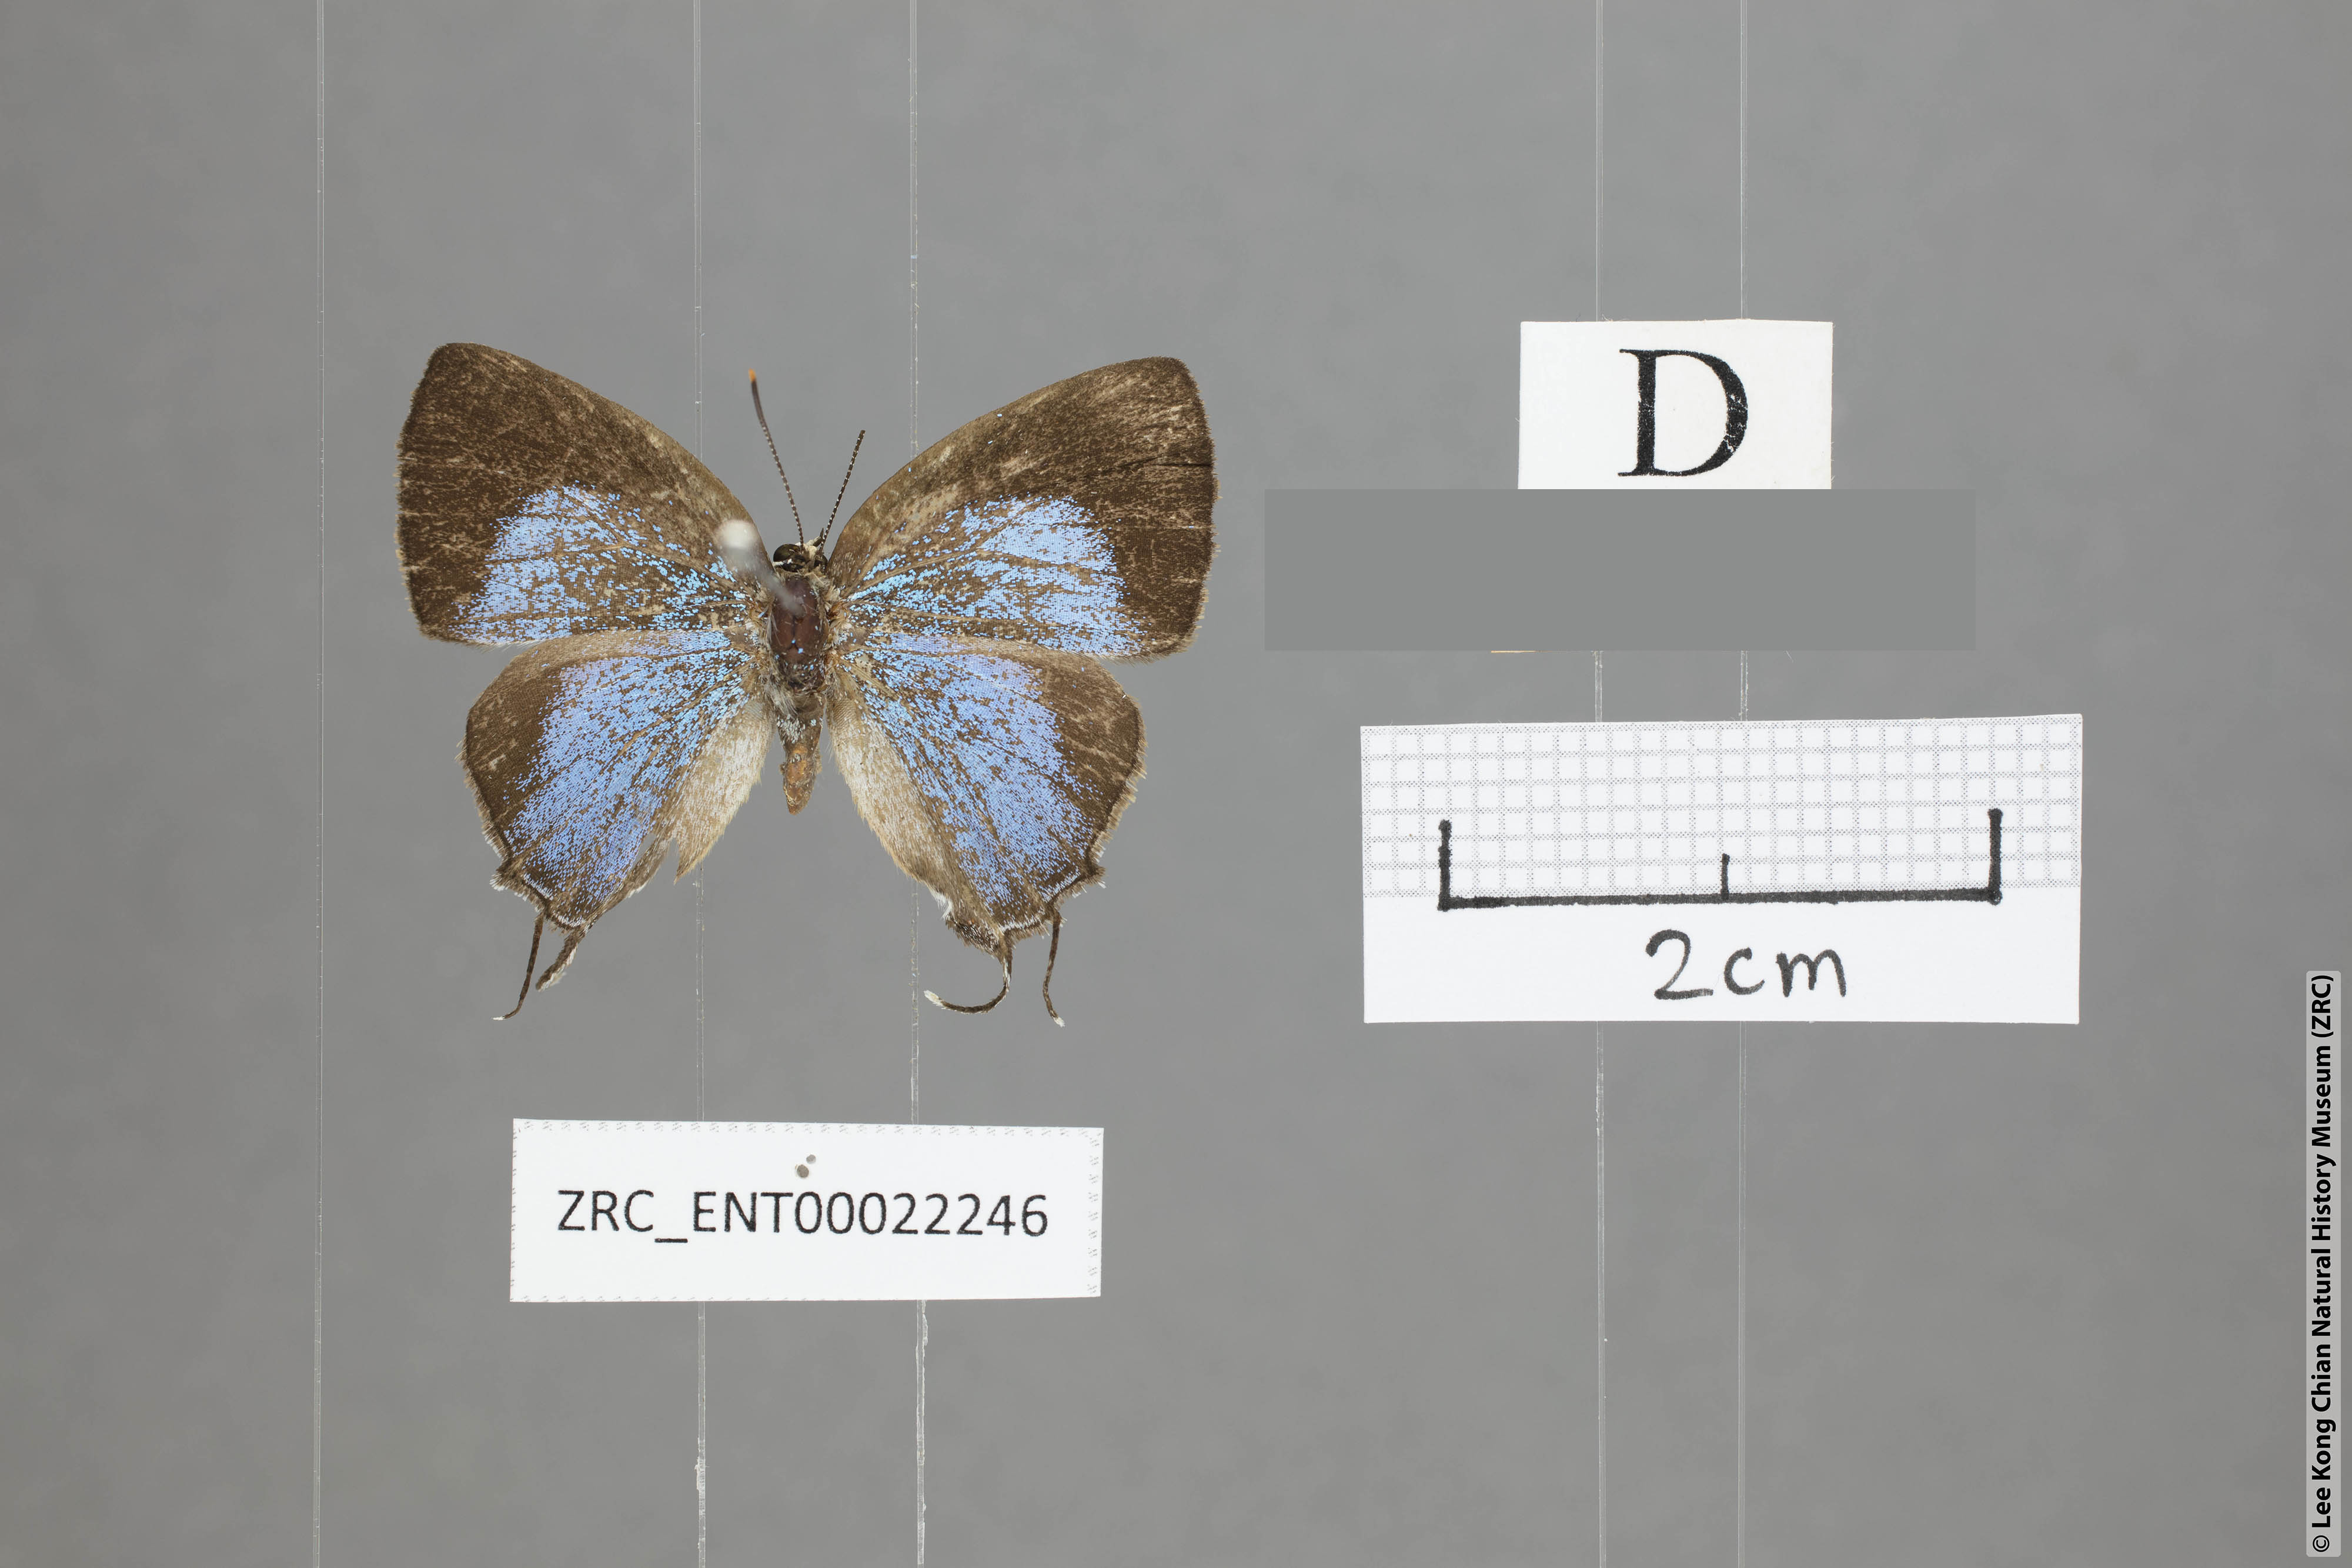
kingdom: Animalia
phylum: Arthropoda
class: Insecta
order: Lepidoptera
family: Lycaenidae
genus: Tajuria
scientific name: Tajuria yajna
